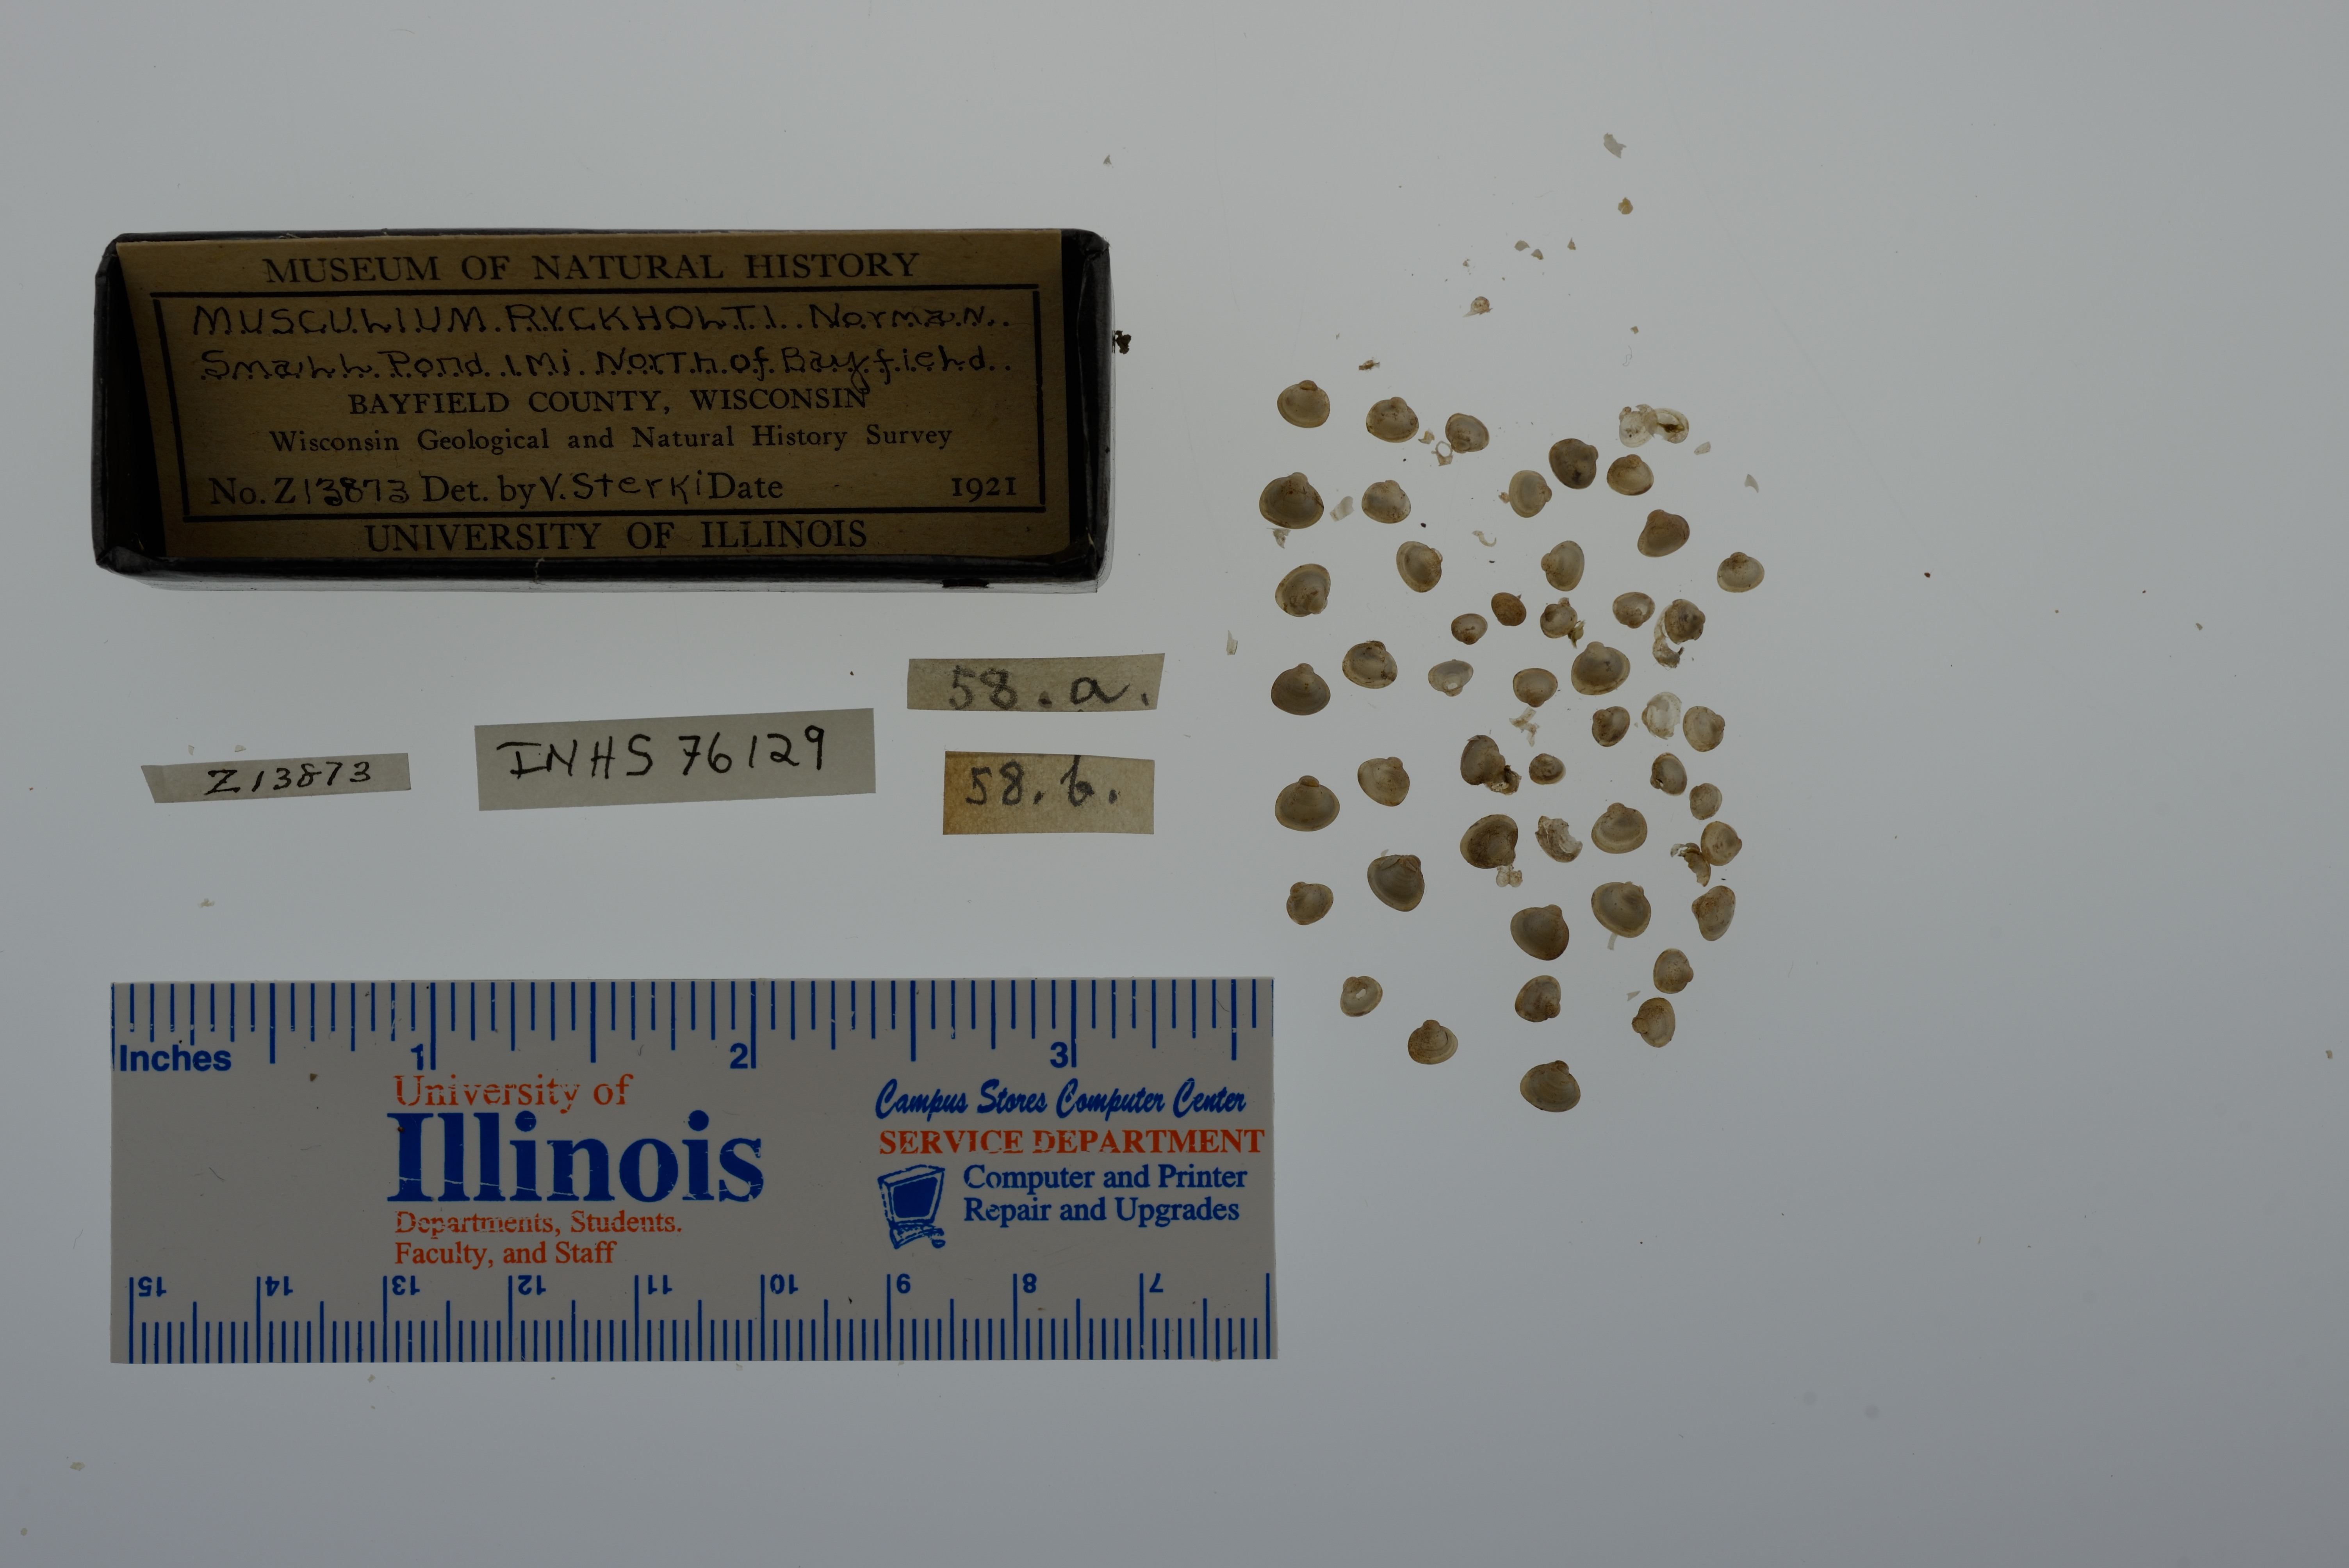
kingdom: Animalia
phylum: Mollusca
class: Bivalvia
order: Sphaeriida
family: Sphaeriidae
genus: Musculium
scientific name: Musculium lacustre
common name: Lake fingernailclam
